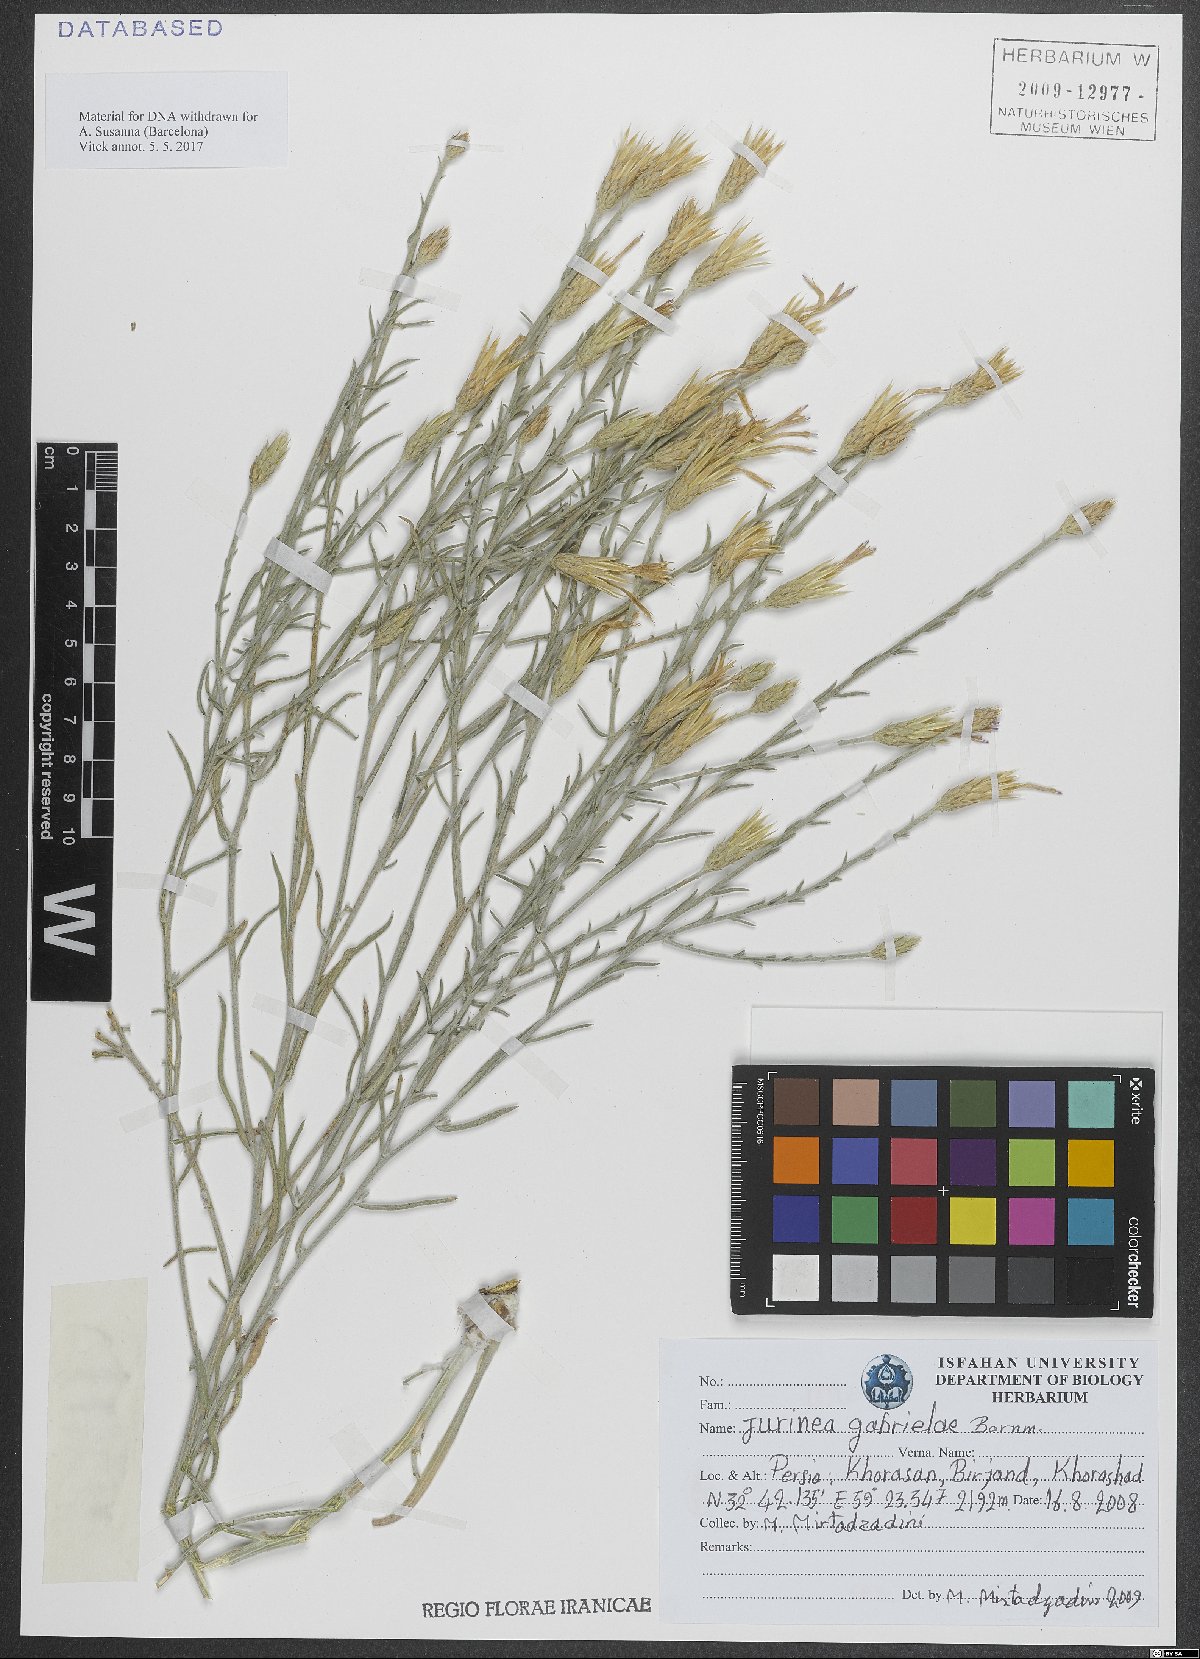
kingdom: Plantae
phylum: Tracheophyta
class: Magnoliopsida
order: Asterales
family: Asteraceae
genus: Jurinea
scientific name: Jurinea gabrielae
